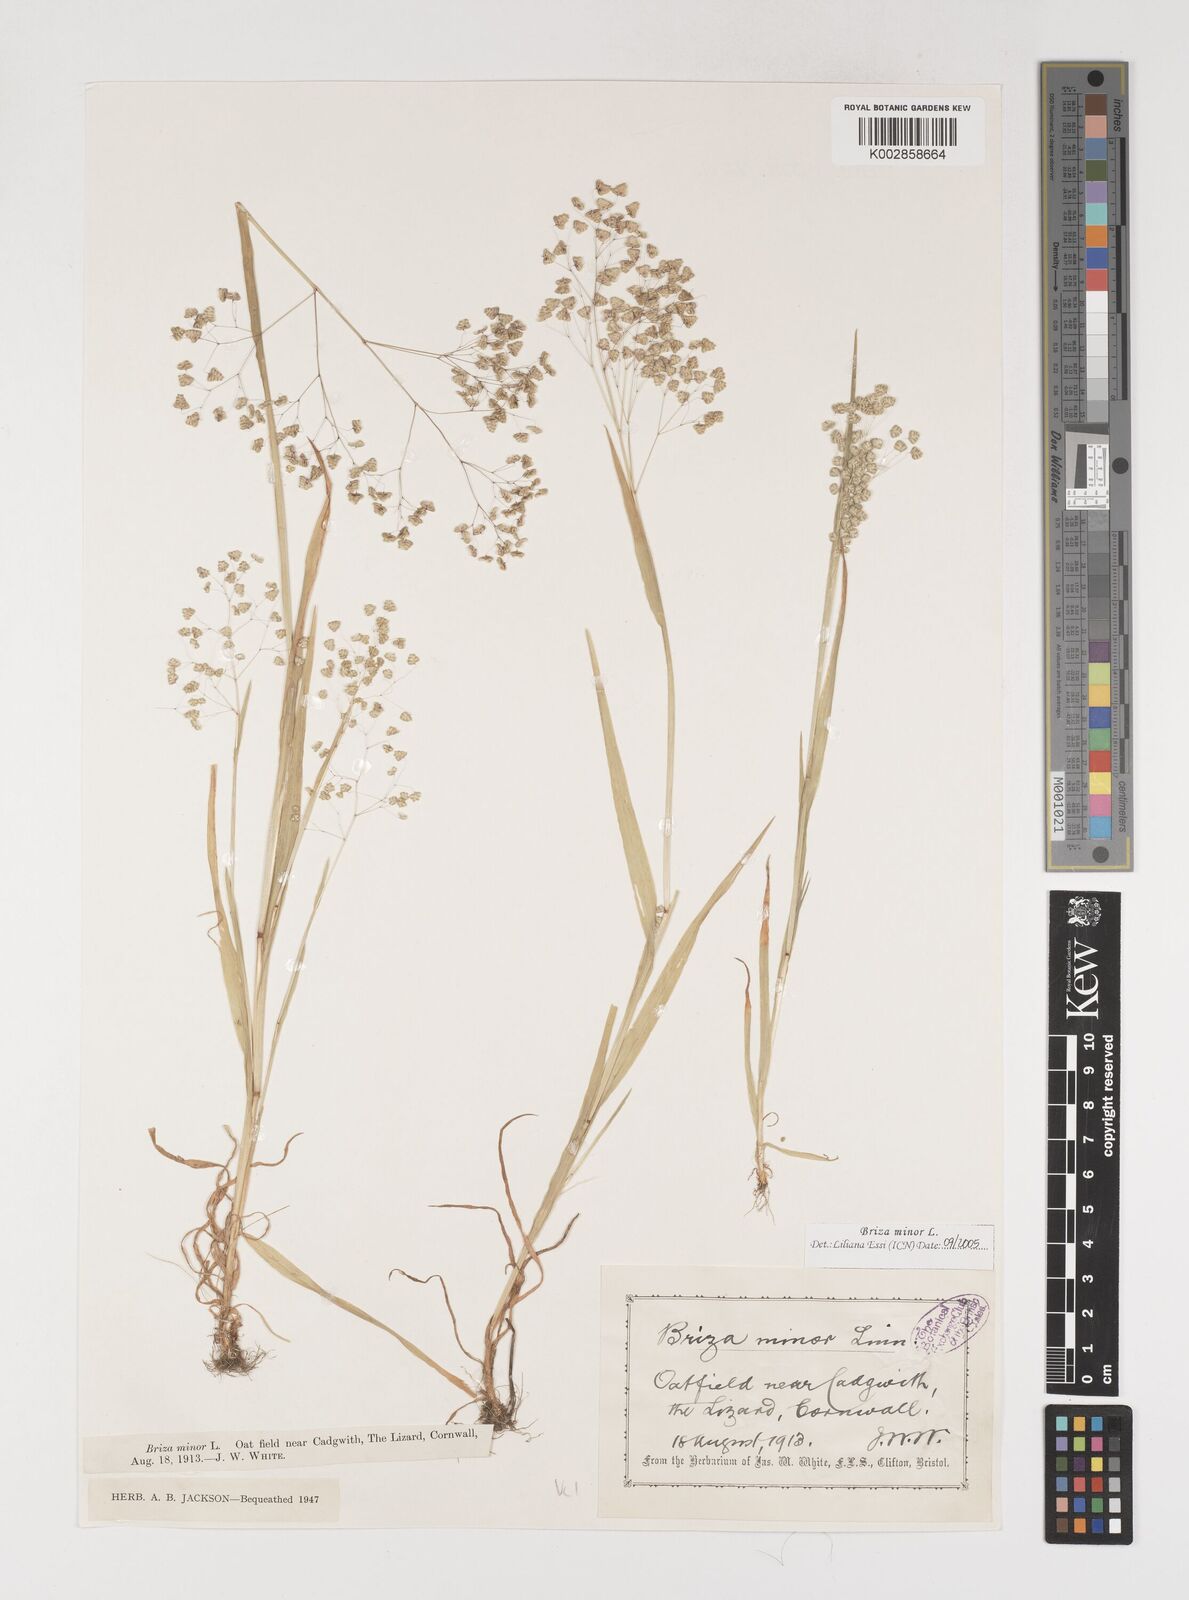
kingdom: Plantae
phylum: Tracheophyta
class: Liliopsida
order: Poales
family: Poaceae
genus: Briza
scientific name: Briza minor
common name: Lesser quaking-grass
